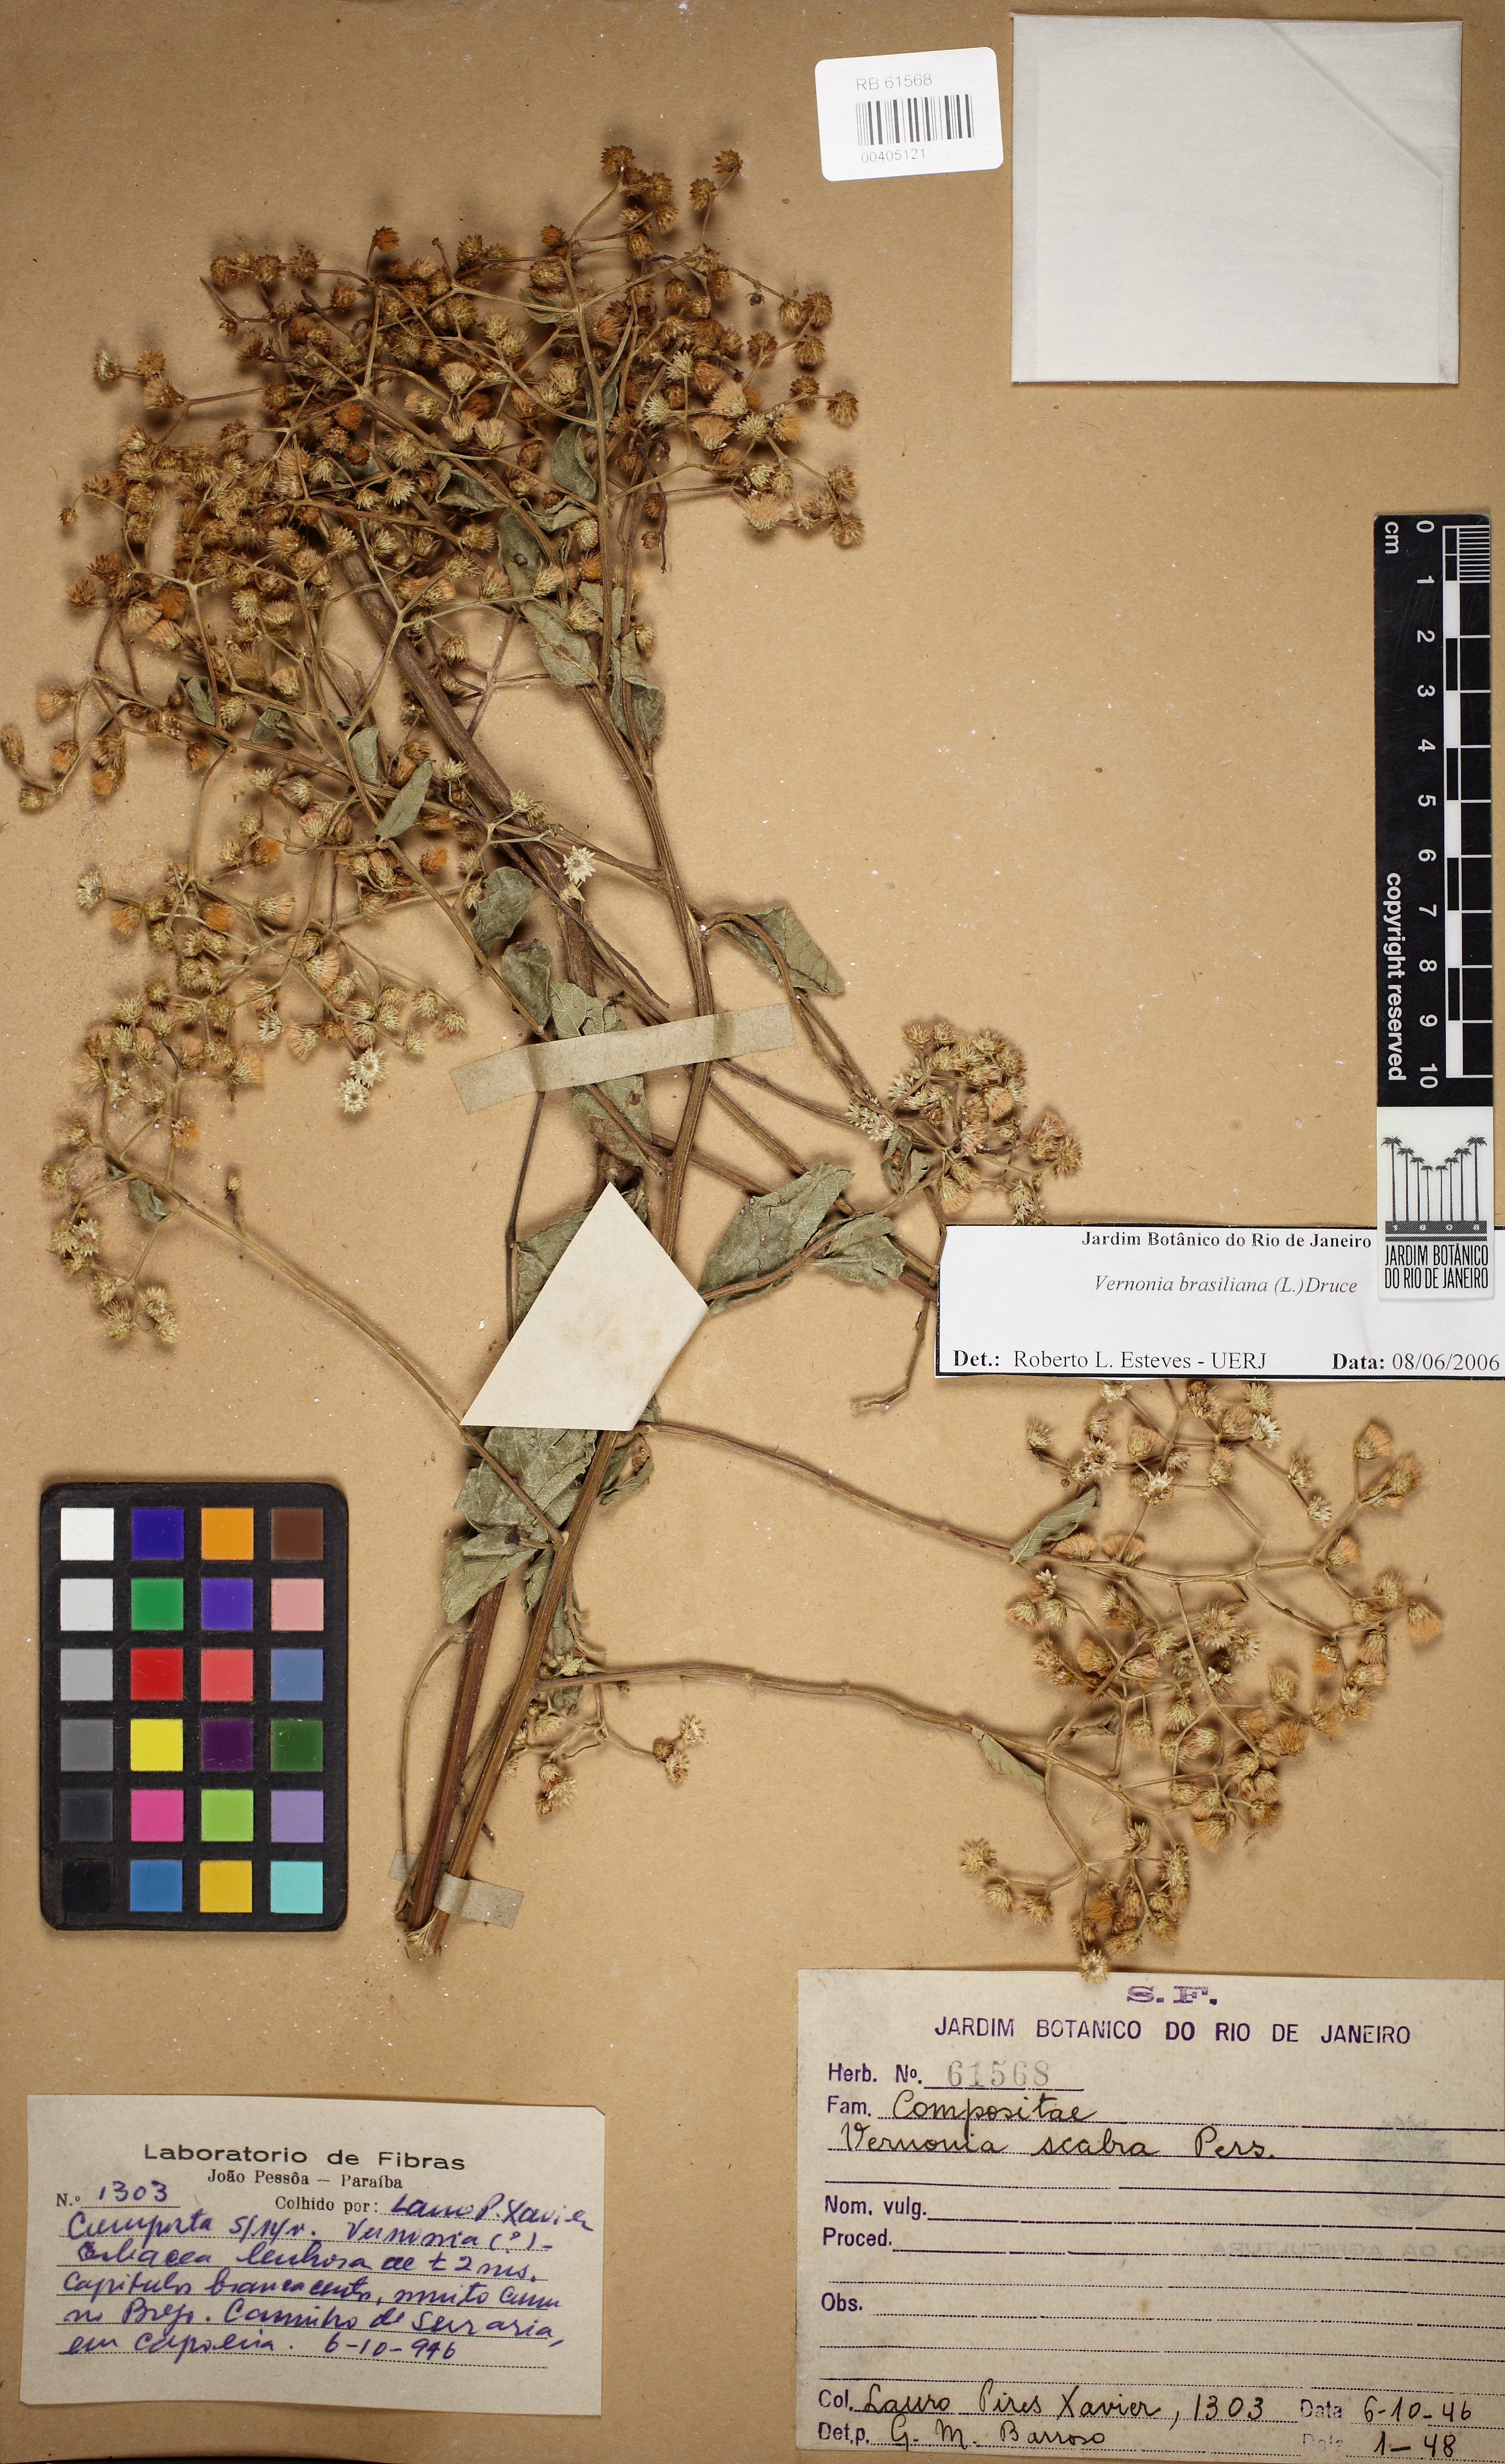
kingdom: Plantae
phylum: Tracheophyta
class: Magnoliopsida
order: Asterales
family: Asteraceae
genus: Vernonanthura
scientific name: Vernonanthura
